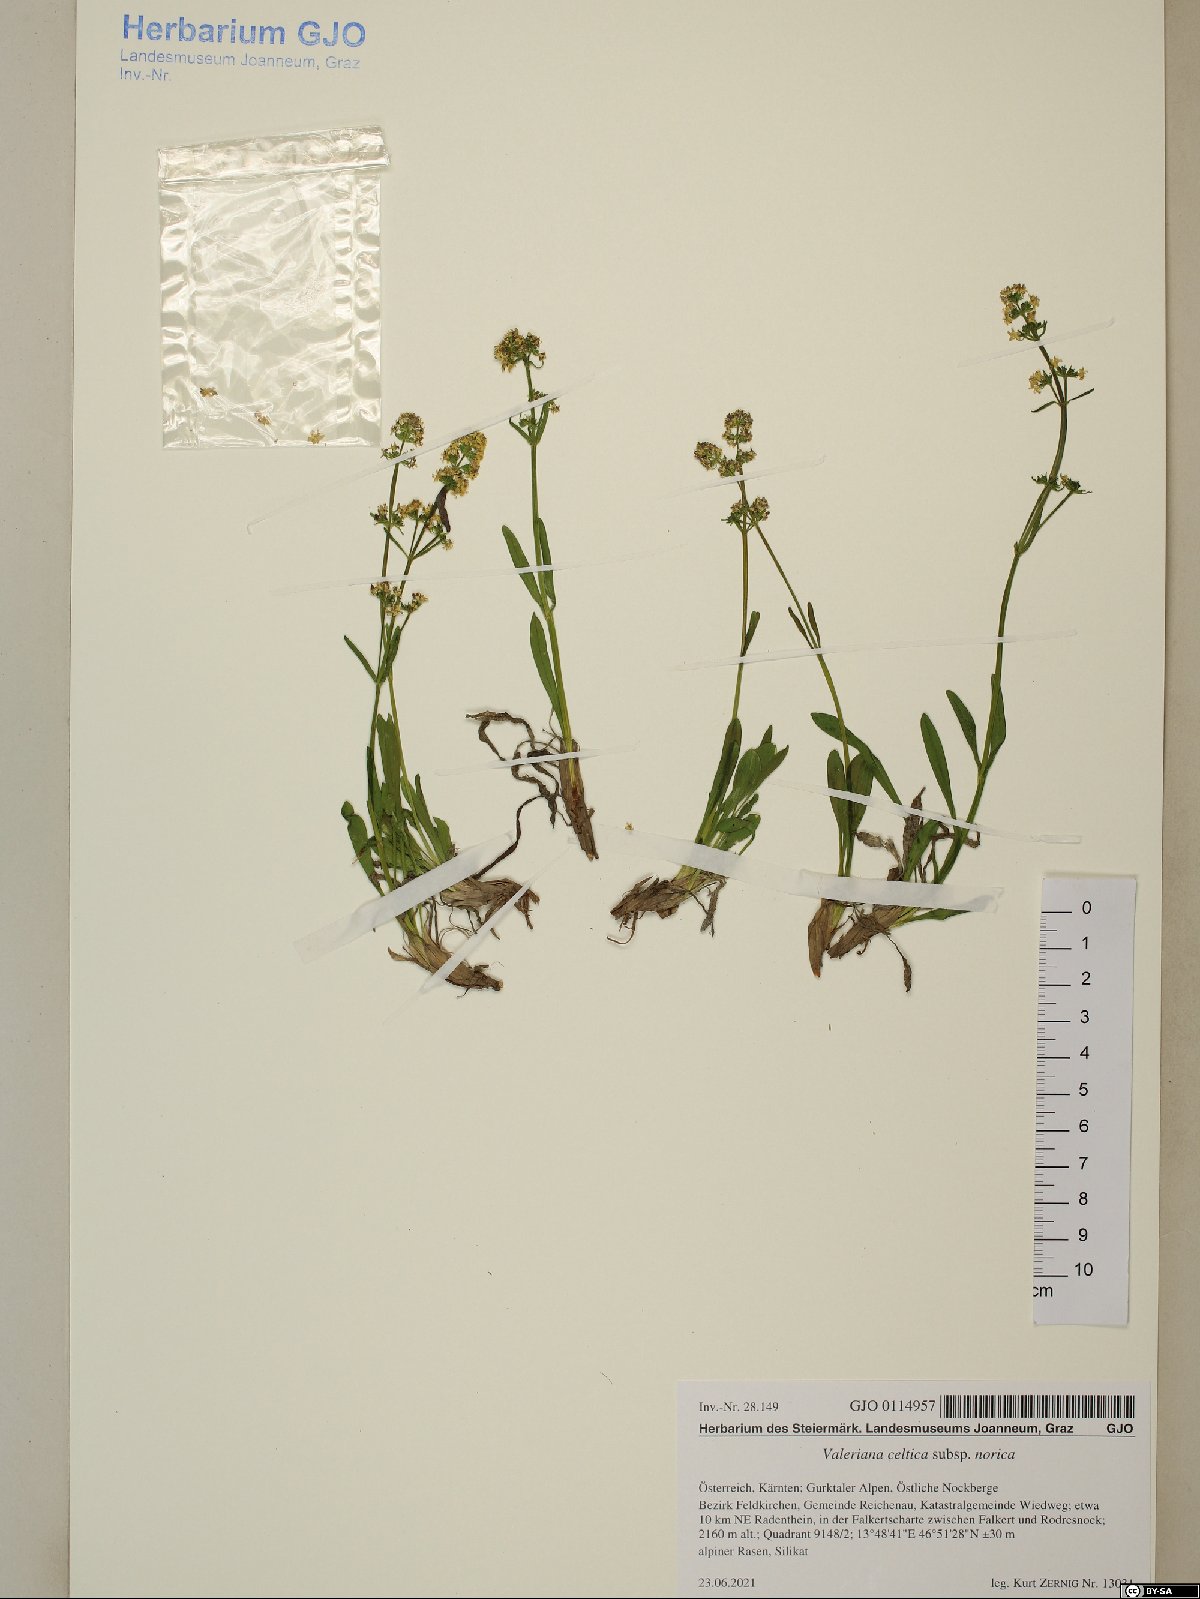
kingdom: Plantae
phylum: Tracheophyta
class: Magnoliopsida
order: Dipsacales
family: Caprifoliaceae
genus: Valeriana
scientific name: Valeriana celtica
